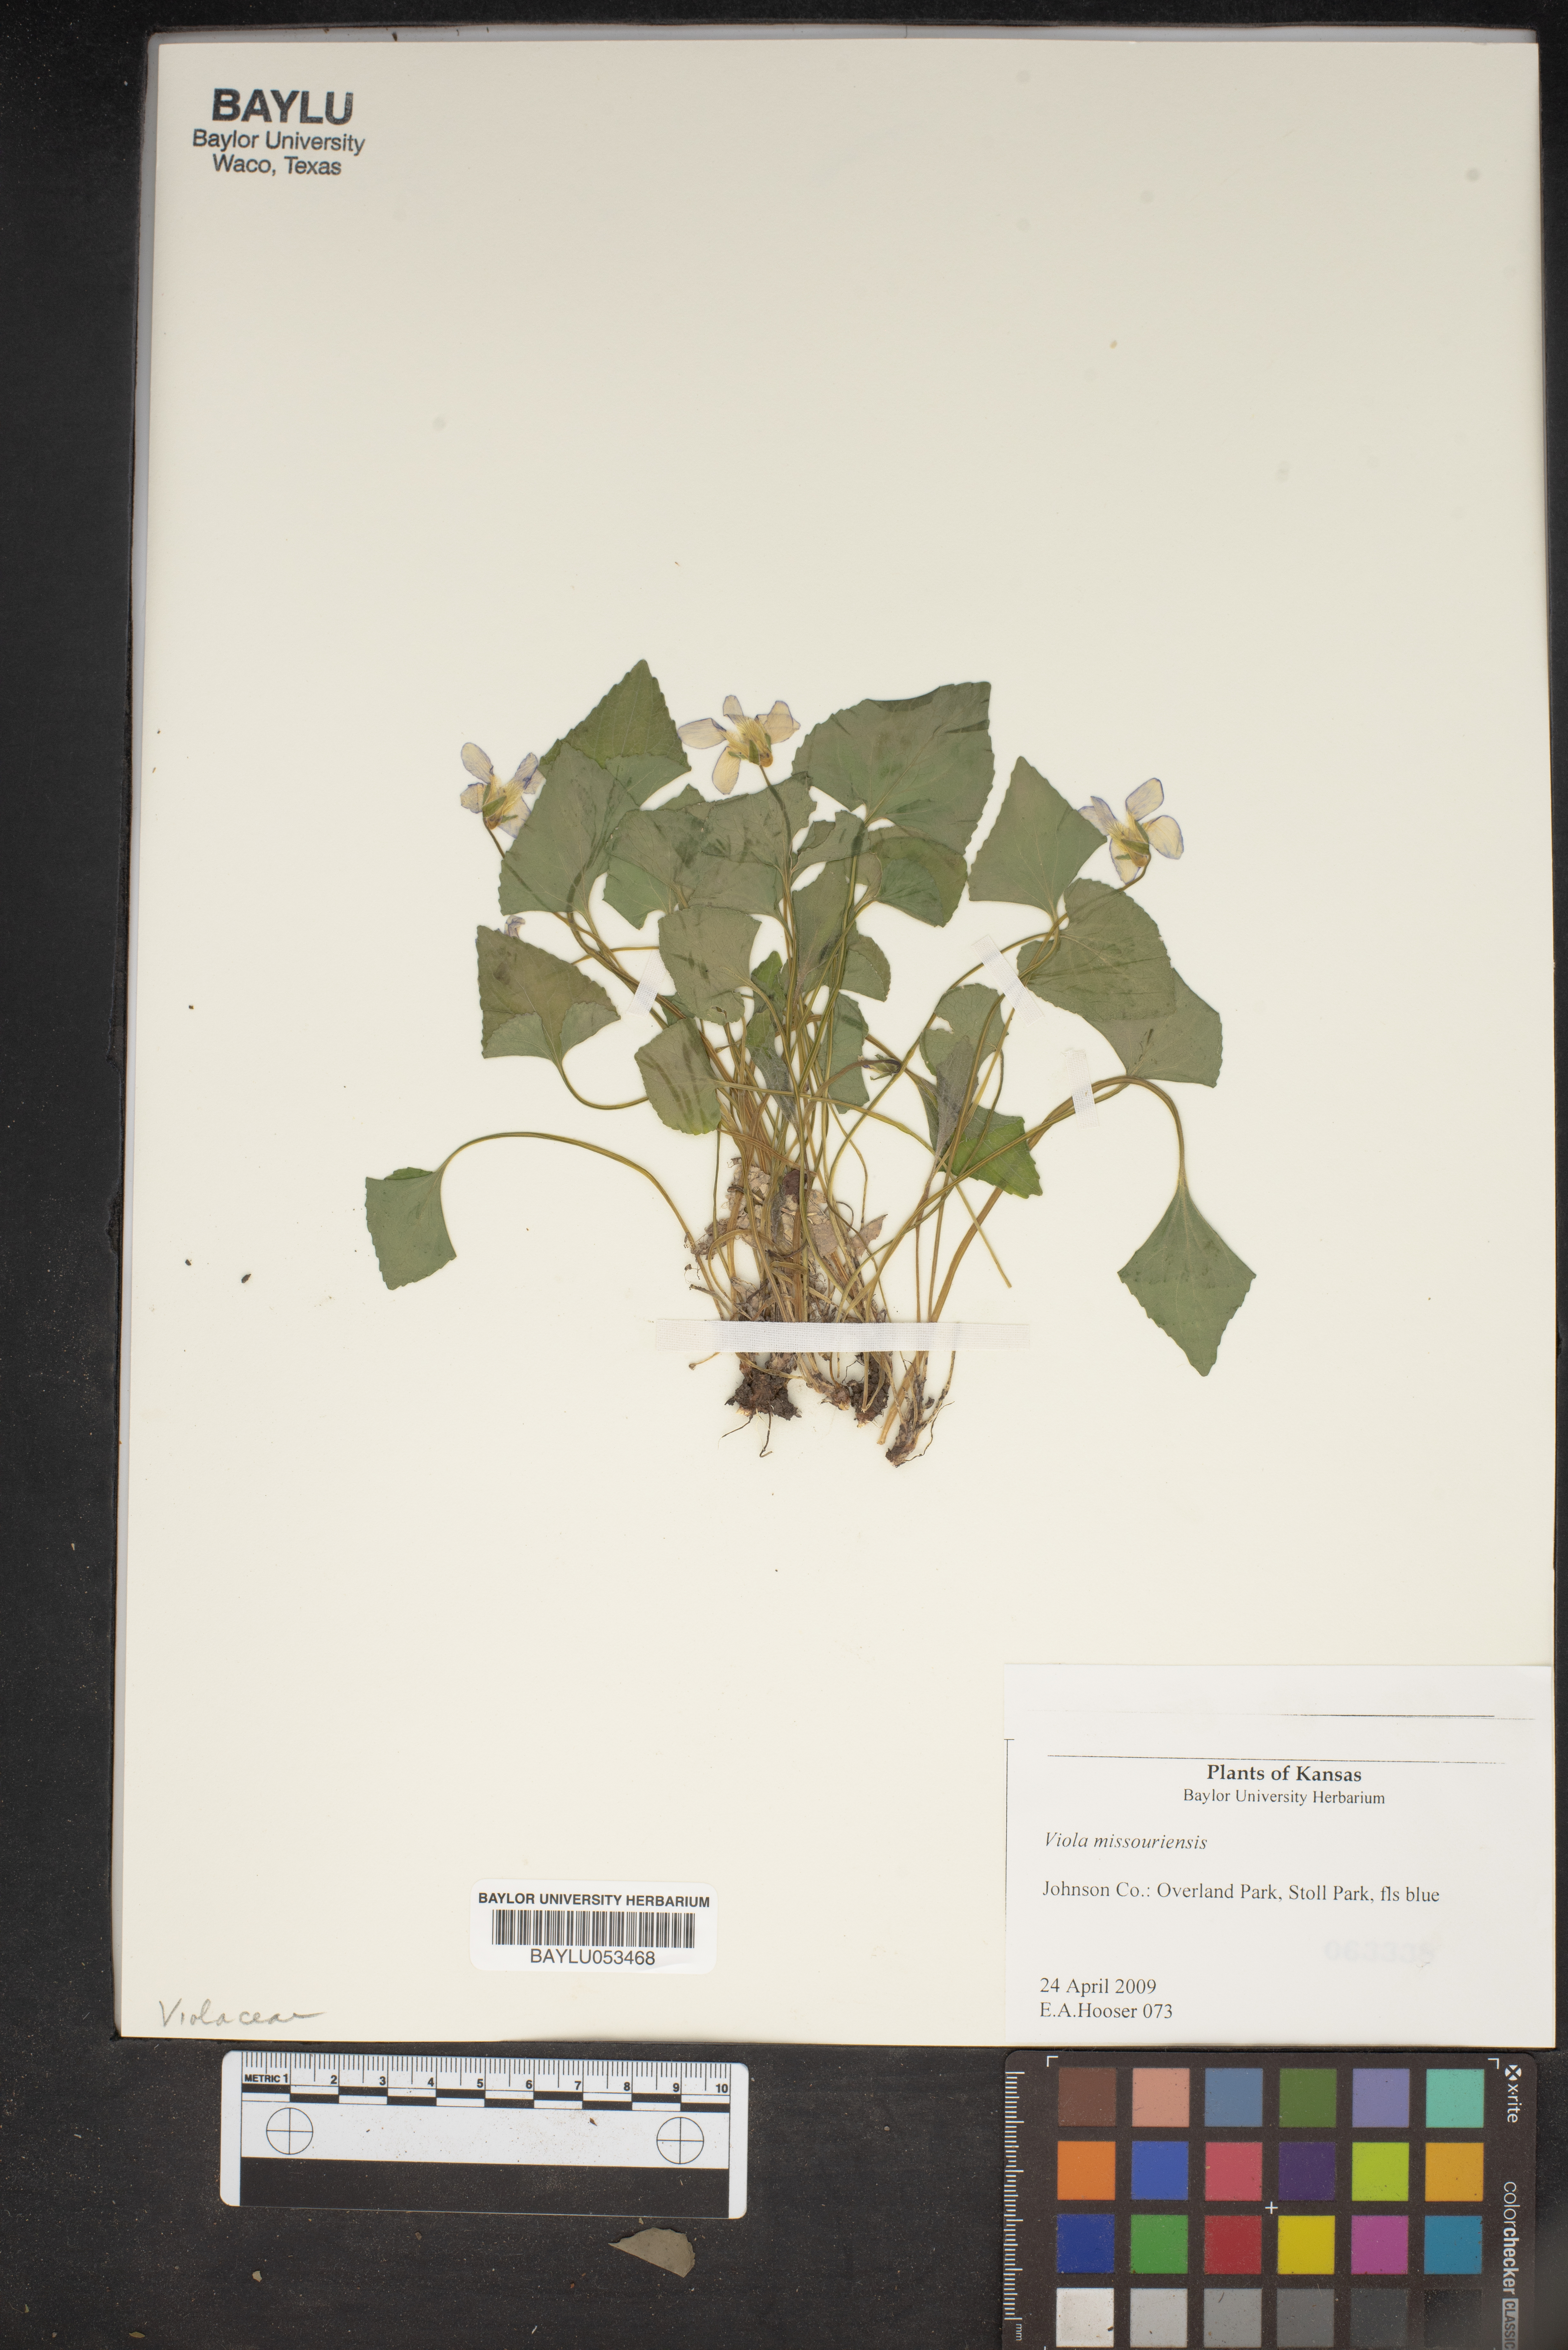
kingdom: Plantae
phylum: Tracheophyta
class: Magnoliopsida
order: Malpighiales
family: Violaceae
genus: Viola
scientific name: Viola missouriensis
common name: Missouri violet
